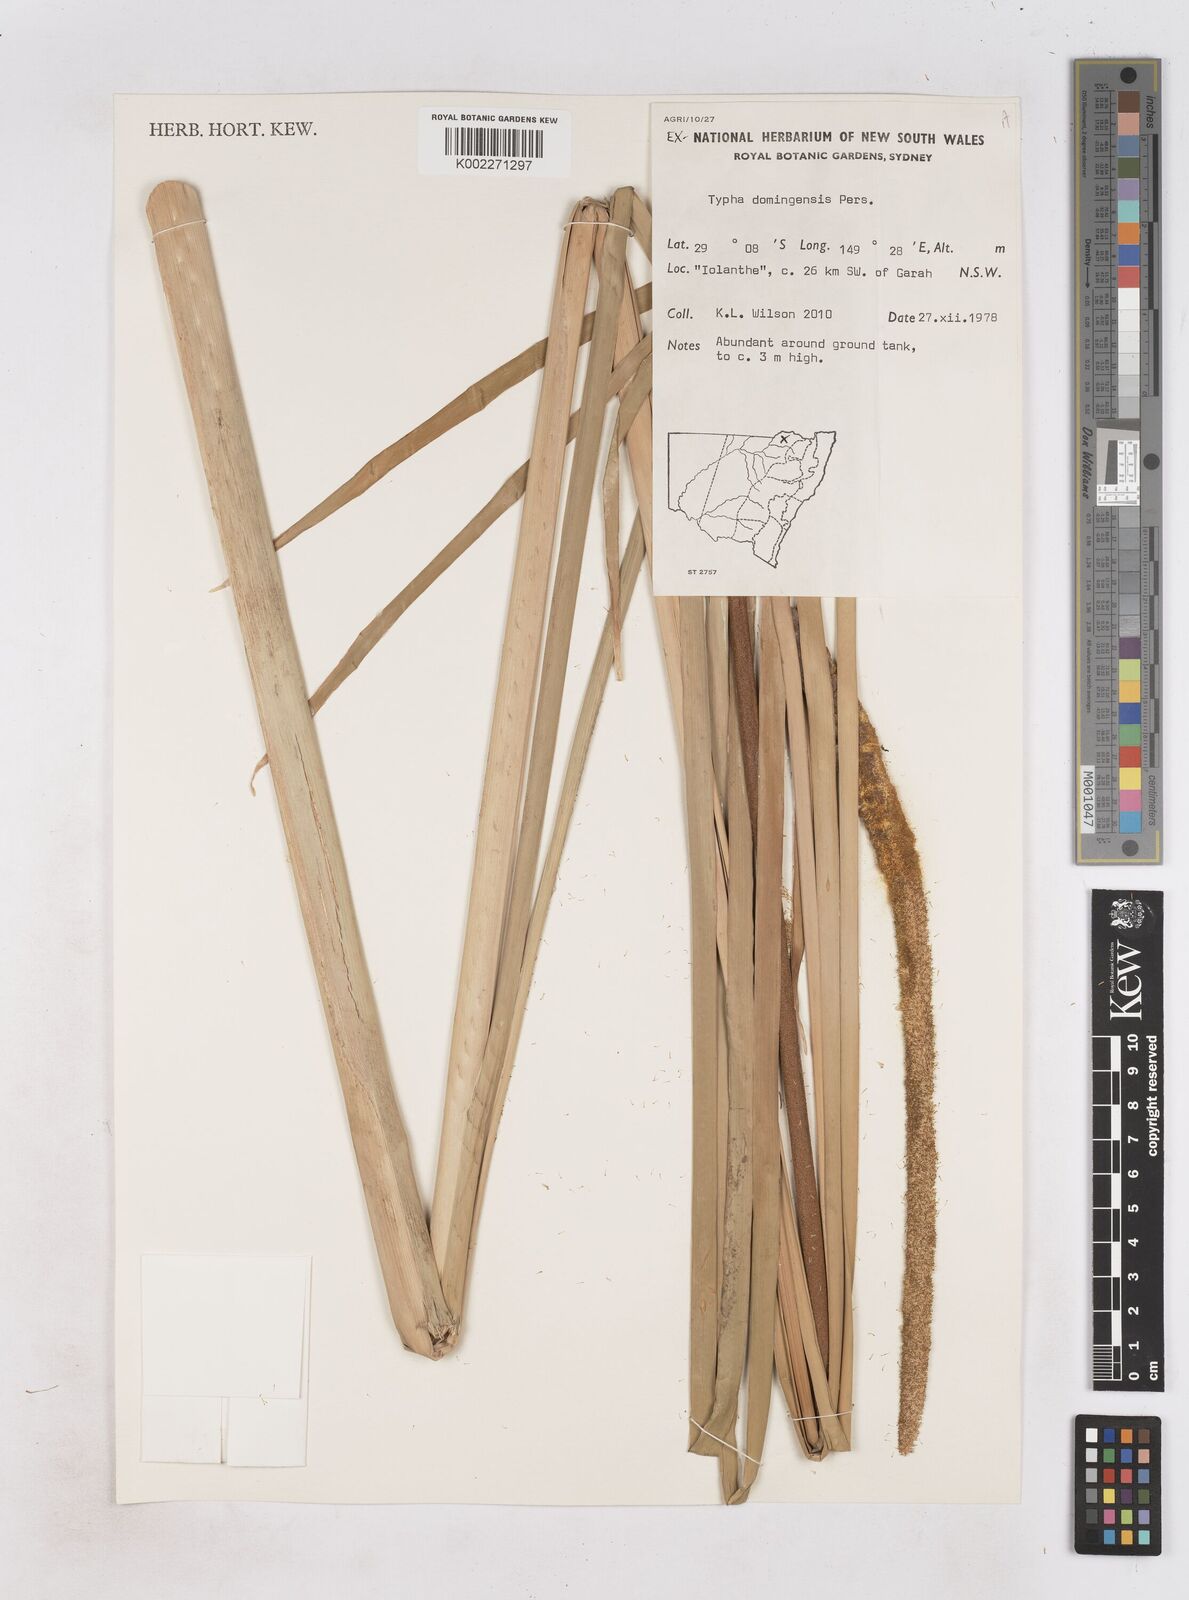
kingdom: Plantae
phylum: Tracheophyta
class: Liliopsida
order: Poales
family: Typhaceae
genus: Typha
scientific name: Typha domingensis
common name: Southern cattail
